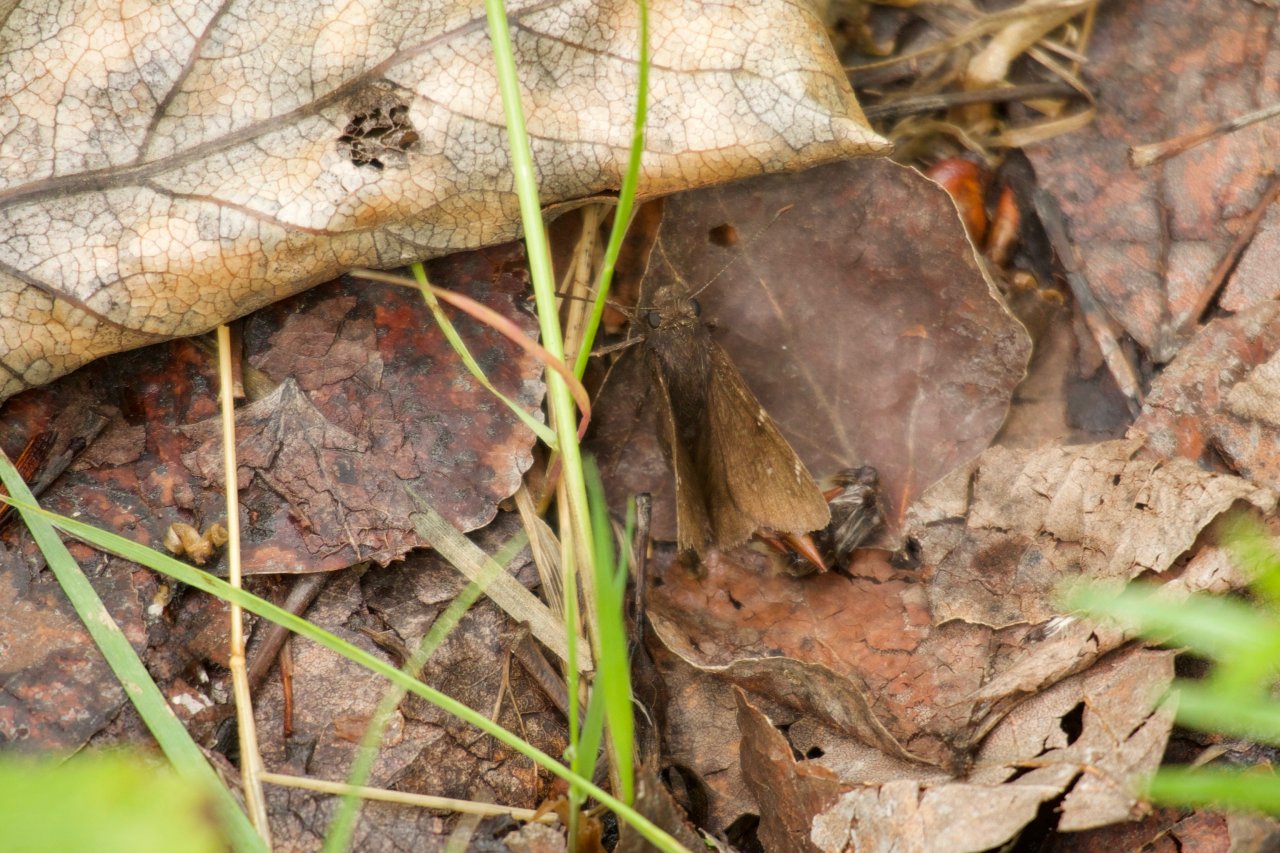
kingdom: Animalia
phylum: Arthropoda
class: Insecta
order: Lepidoptera
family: Hesperiidae
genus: Autochton
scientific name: Autochton
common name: Northern Cloudywing
